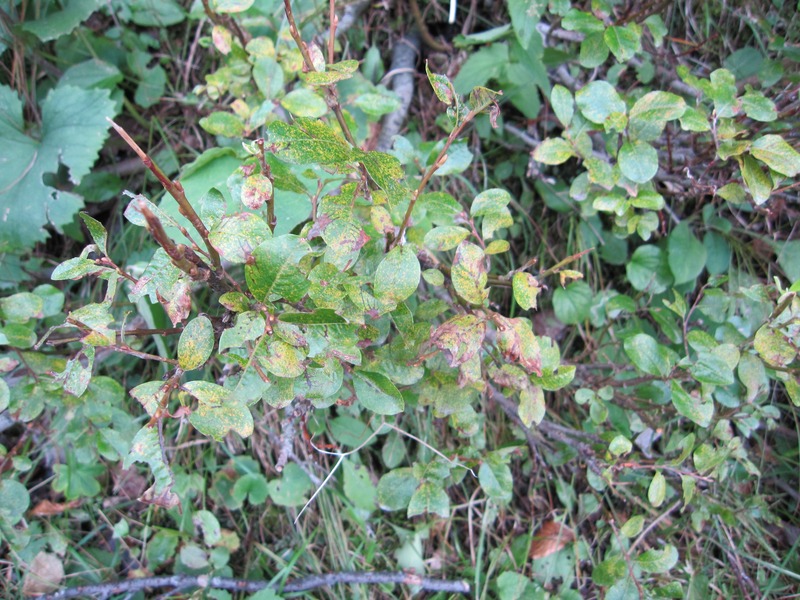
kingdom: Fungi
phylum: Basidiomycota
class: Pucciniomycetes
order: Pucciniales
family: Melampsoraceae
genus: Melampsora
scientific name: Melampsora epitea
